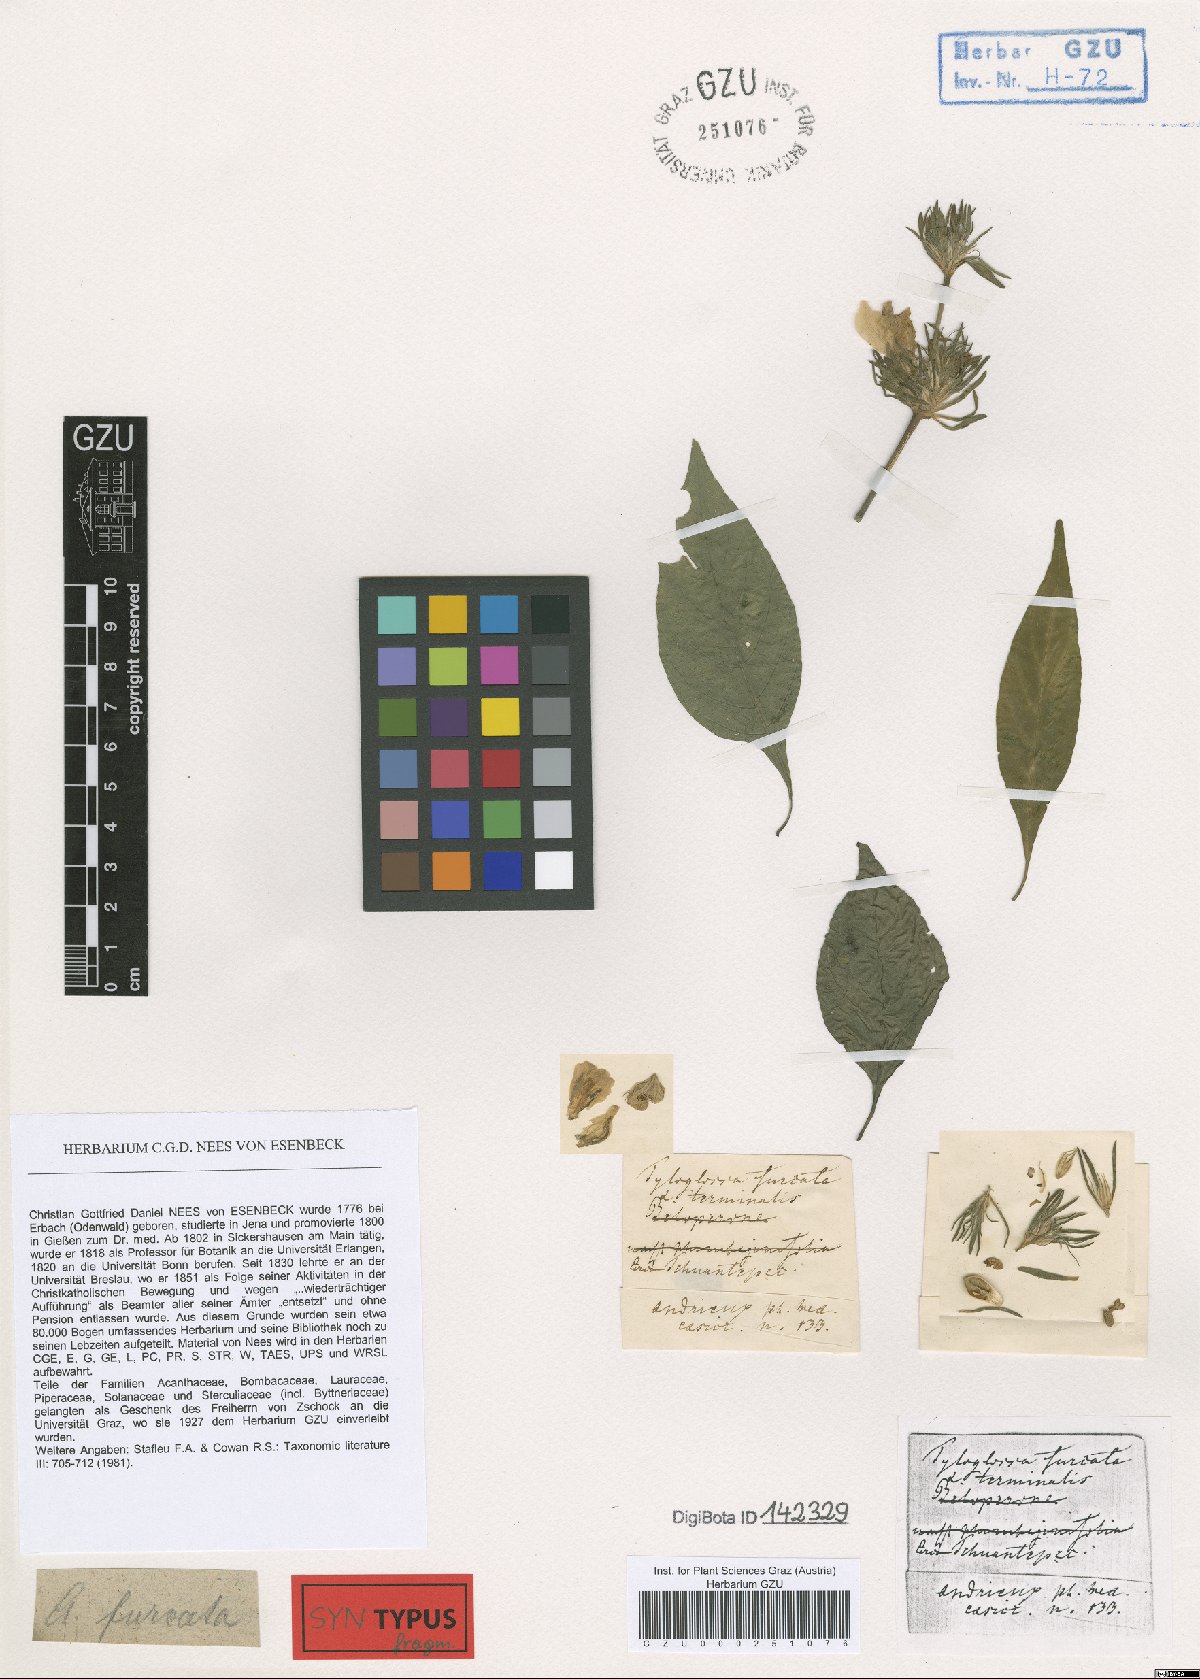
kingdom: Plantae
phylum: Tracheophyta
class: Magnoliopsida
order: Lamiales
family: Acanthaceae
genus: Justicia
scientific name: Justicia furcata
